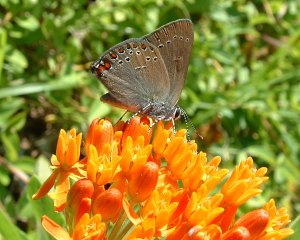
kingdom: Animalia
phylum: Arthropoda
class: Insecta
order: Lepidoptera
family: Lycaenidae
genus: Harkenclenus
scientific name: Harkenclenus titus
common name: Coral Hairstreak
